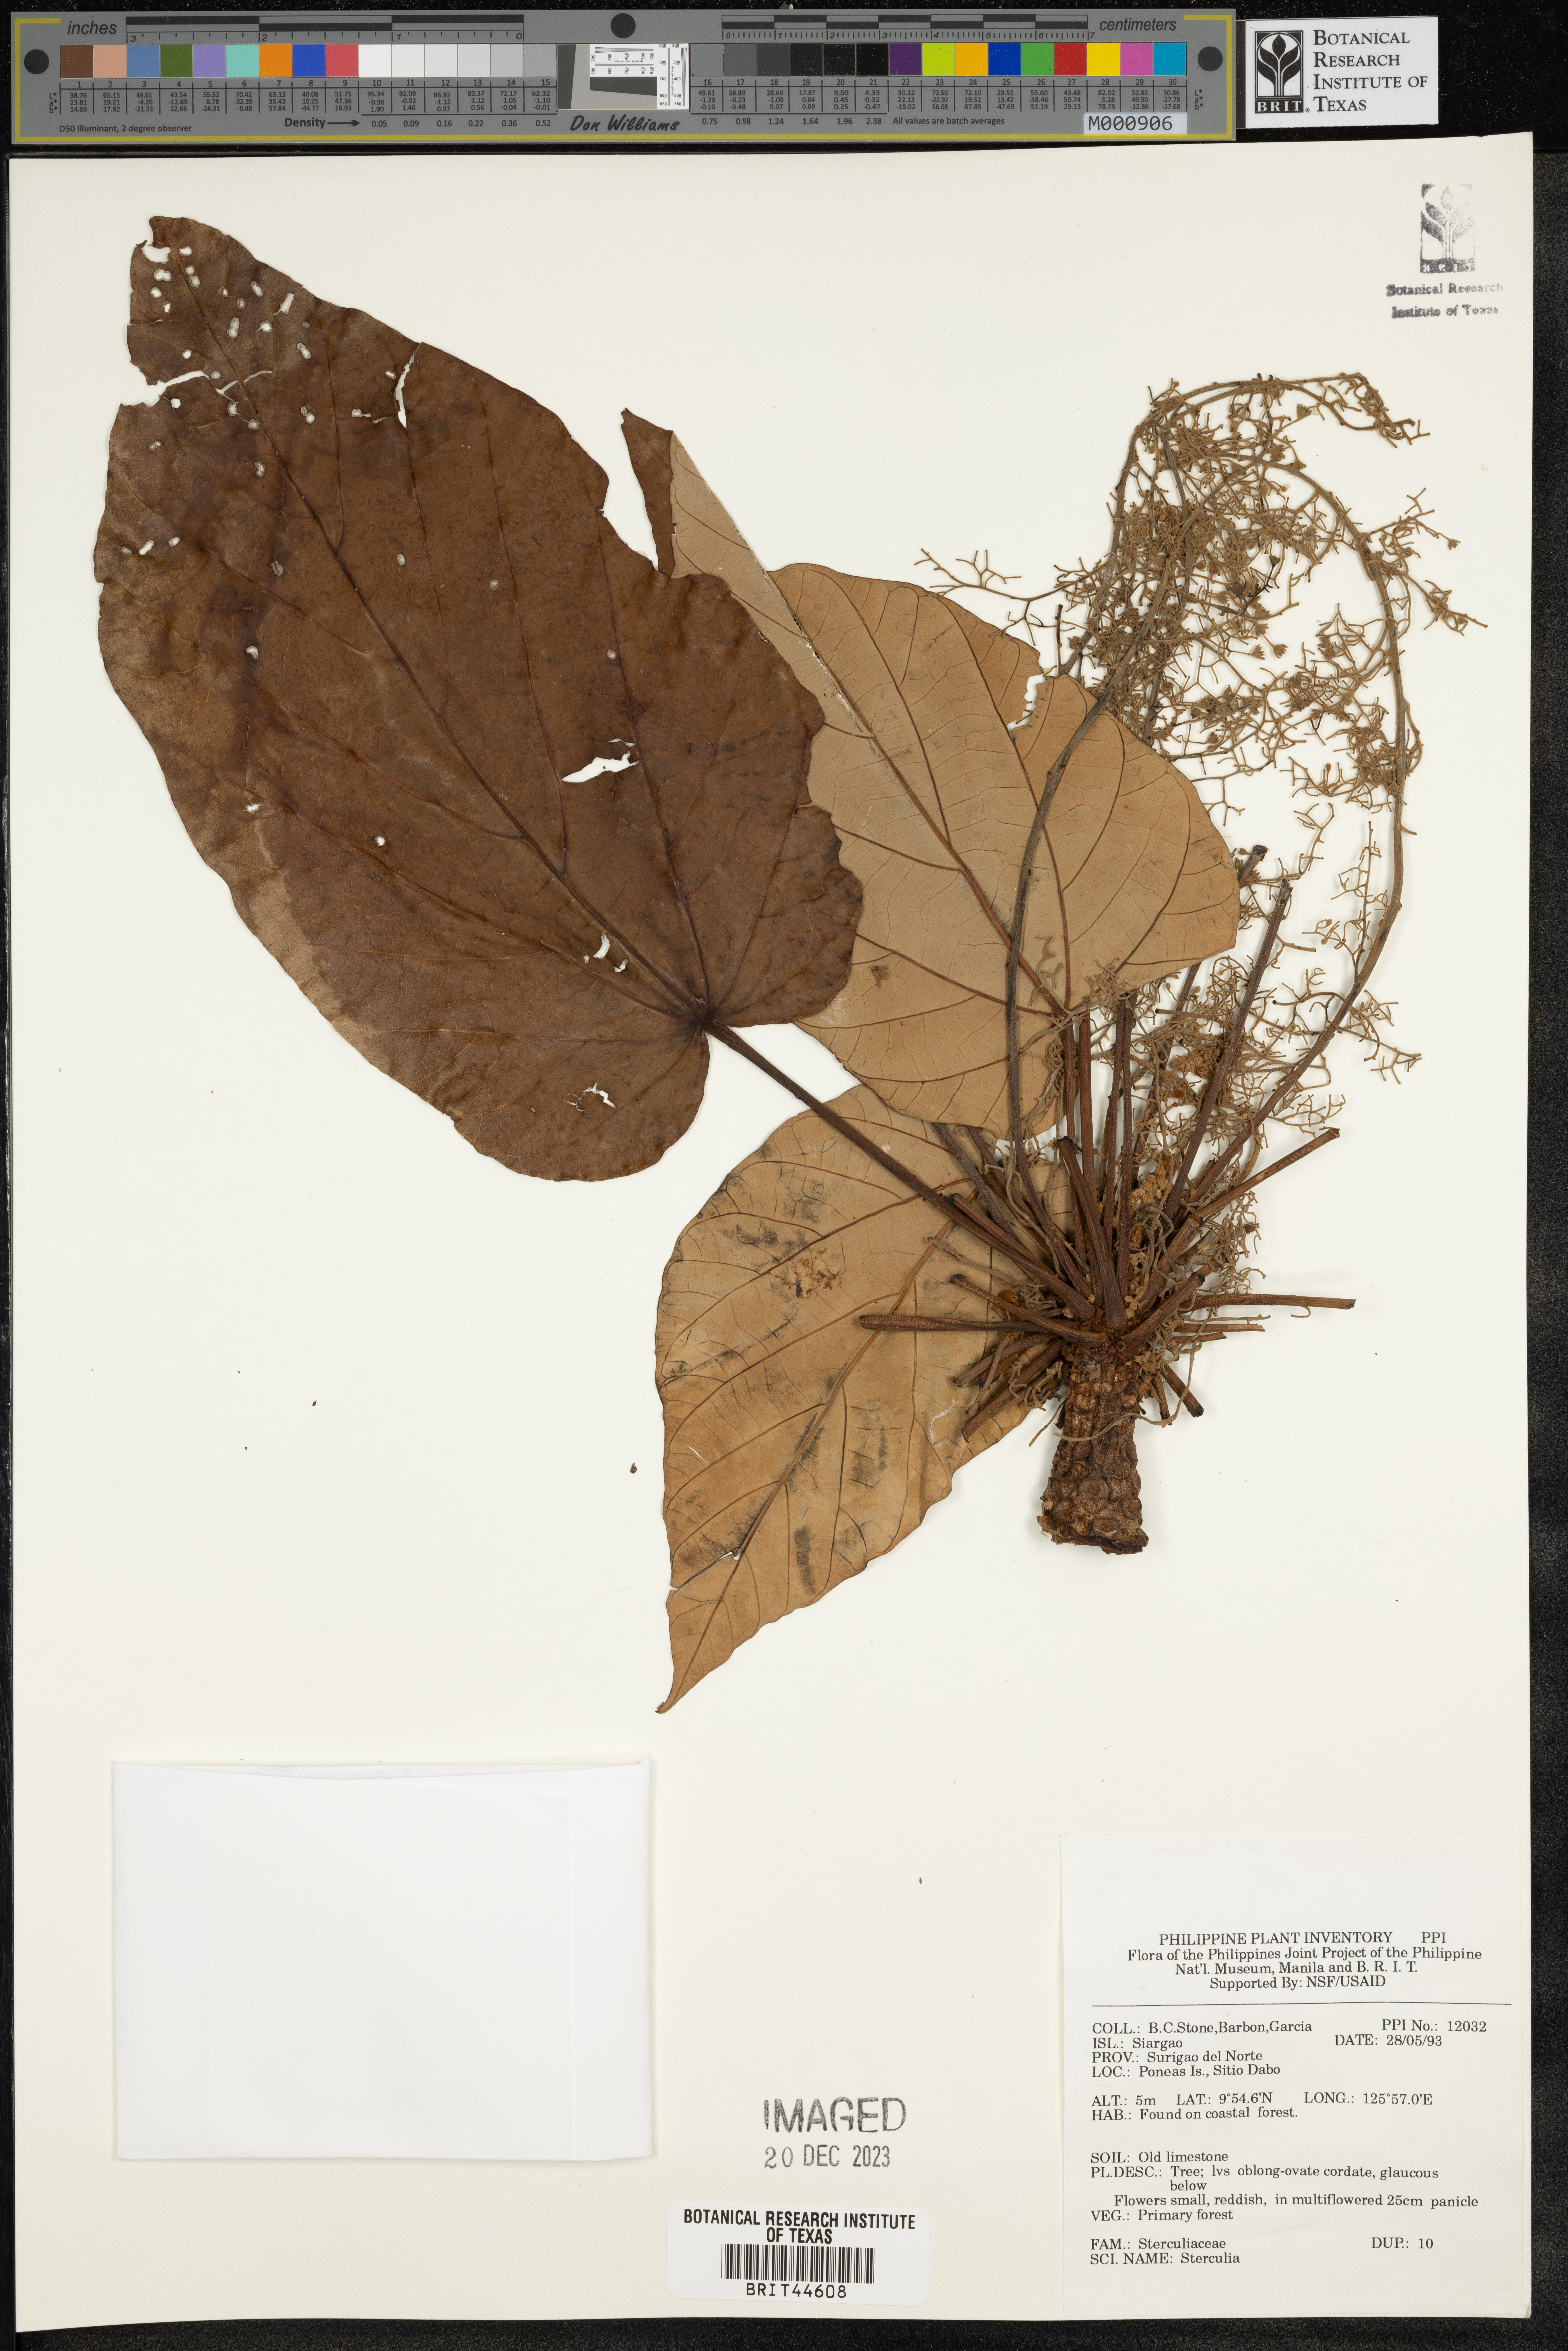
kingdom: Plantae
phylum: Tracheophyta
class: Magnoliopsida
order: Malvales
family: Malvaceae
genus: Sterculia
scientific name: Sterculia
